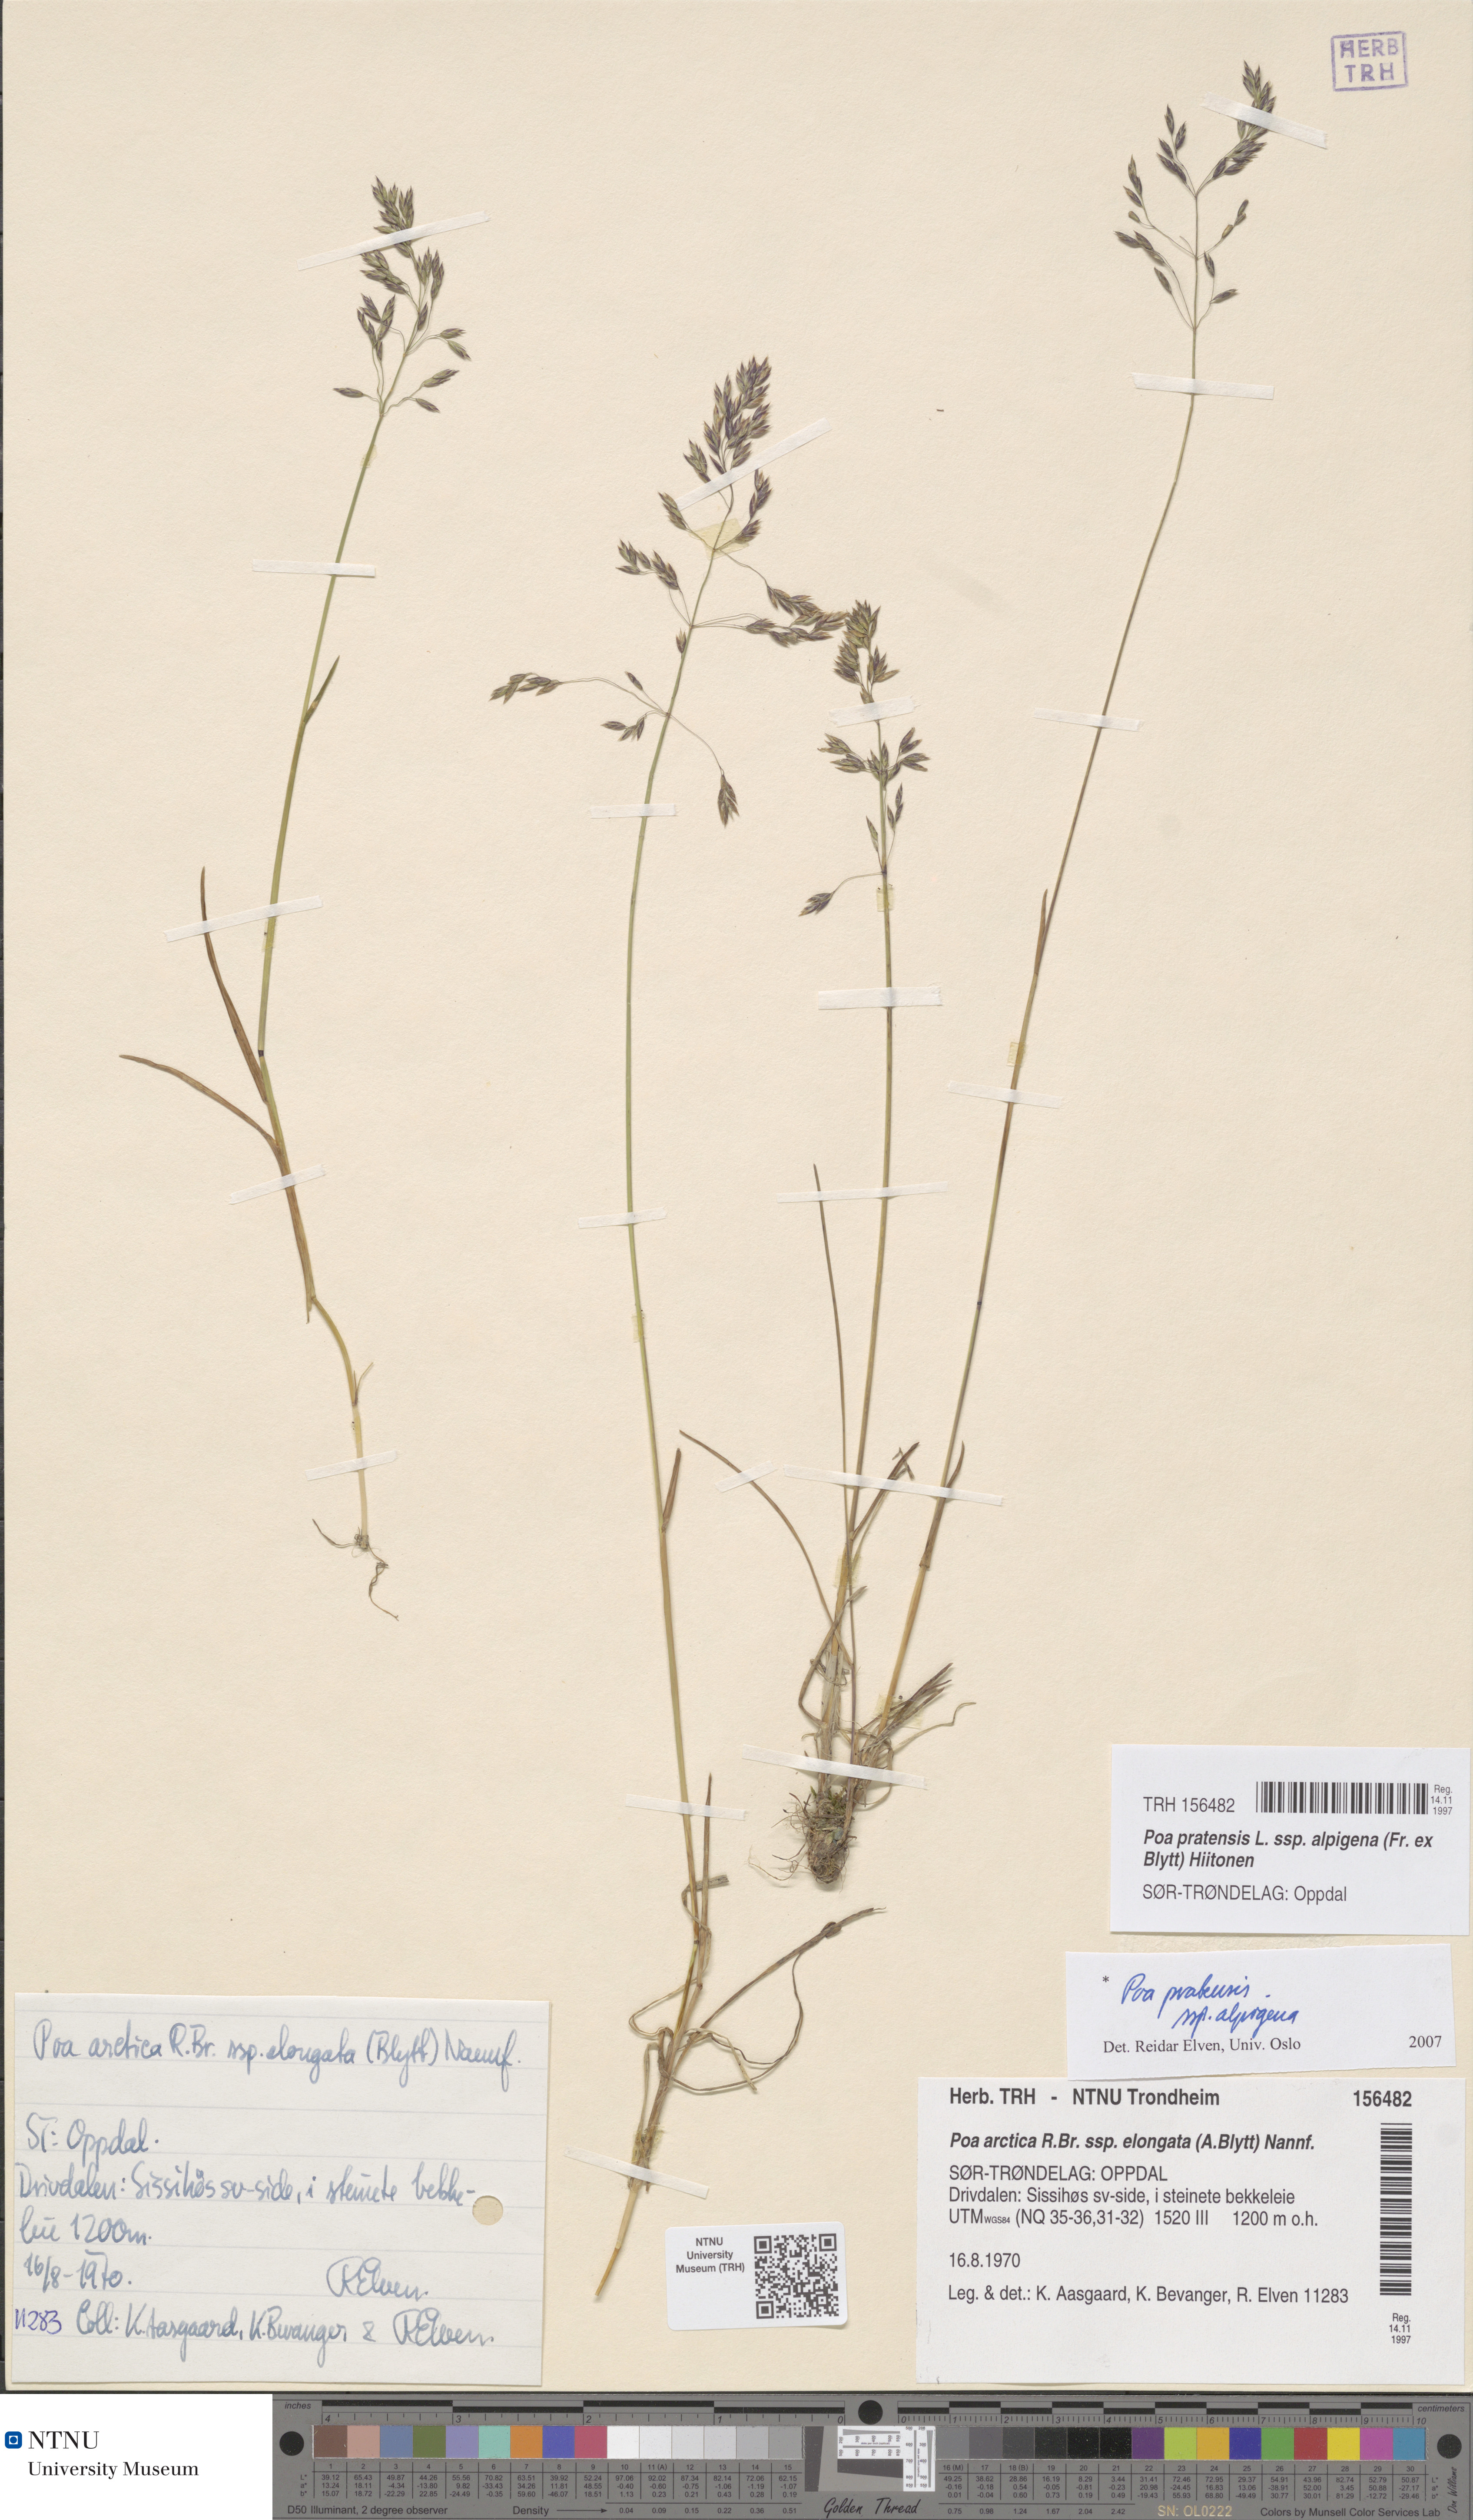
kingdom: Plantae
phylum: Tracheophyta
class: Liliopsida
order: Poales
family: Poaceae
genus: Poa
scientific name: Poa alpigena
